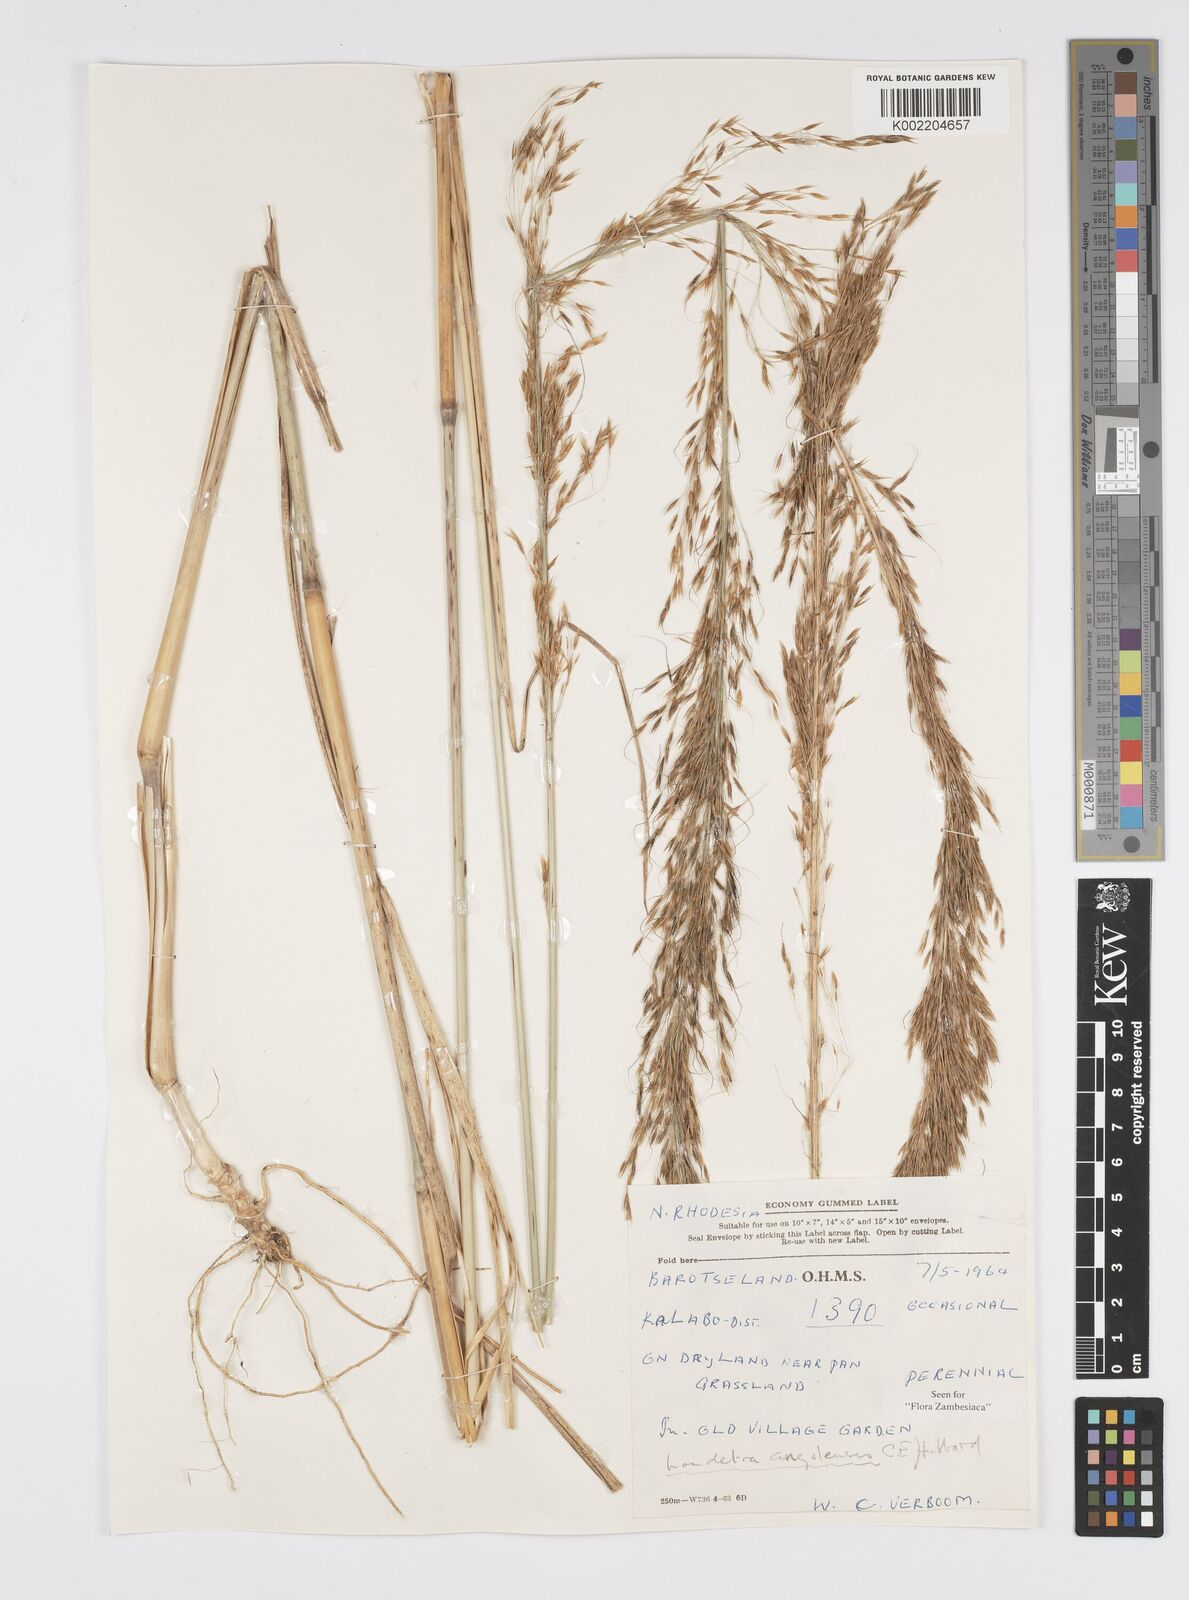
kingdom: Plantae
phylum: Tracheophyta
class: Liliopsida
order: Poales
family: Poaceae
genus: Loudetia
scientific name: Loudetia angolensis
